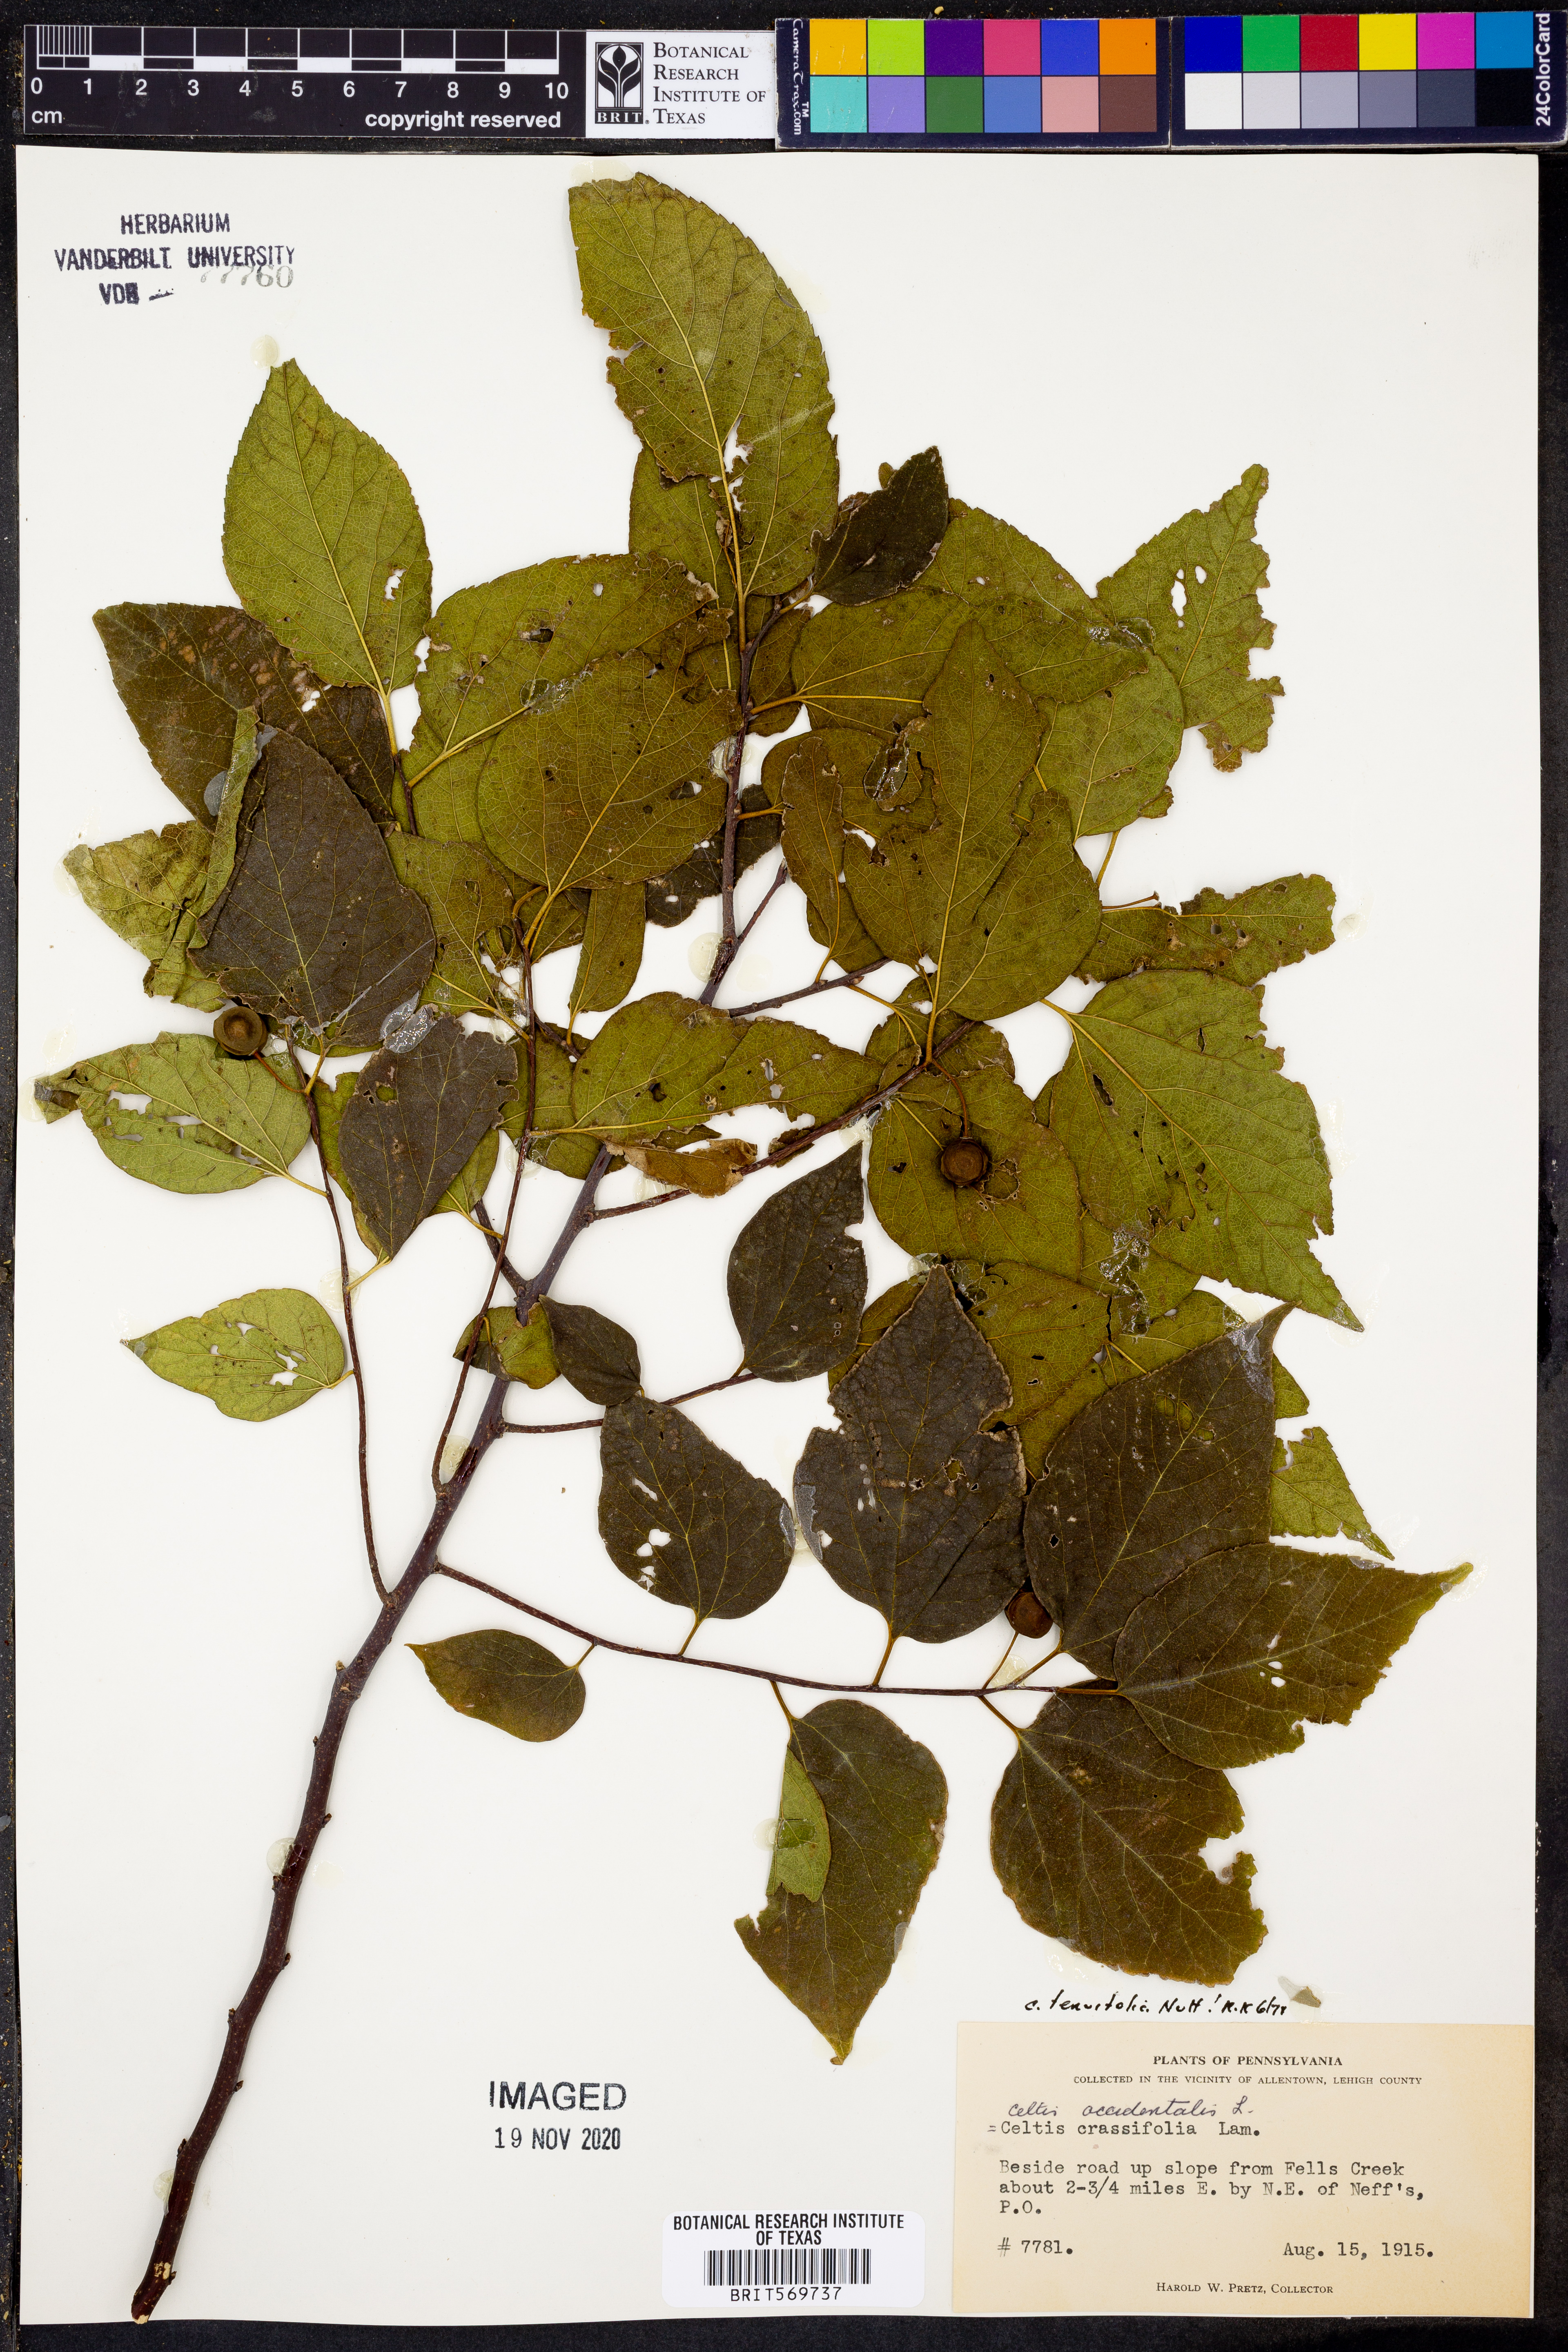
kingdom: Plantae
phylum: Tracheophyta
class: Magnoliopsida
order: Rosales
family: Cannabaceae
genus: Celtis
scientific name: Celtis tenuifolia
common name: Georgia hackberry
